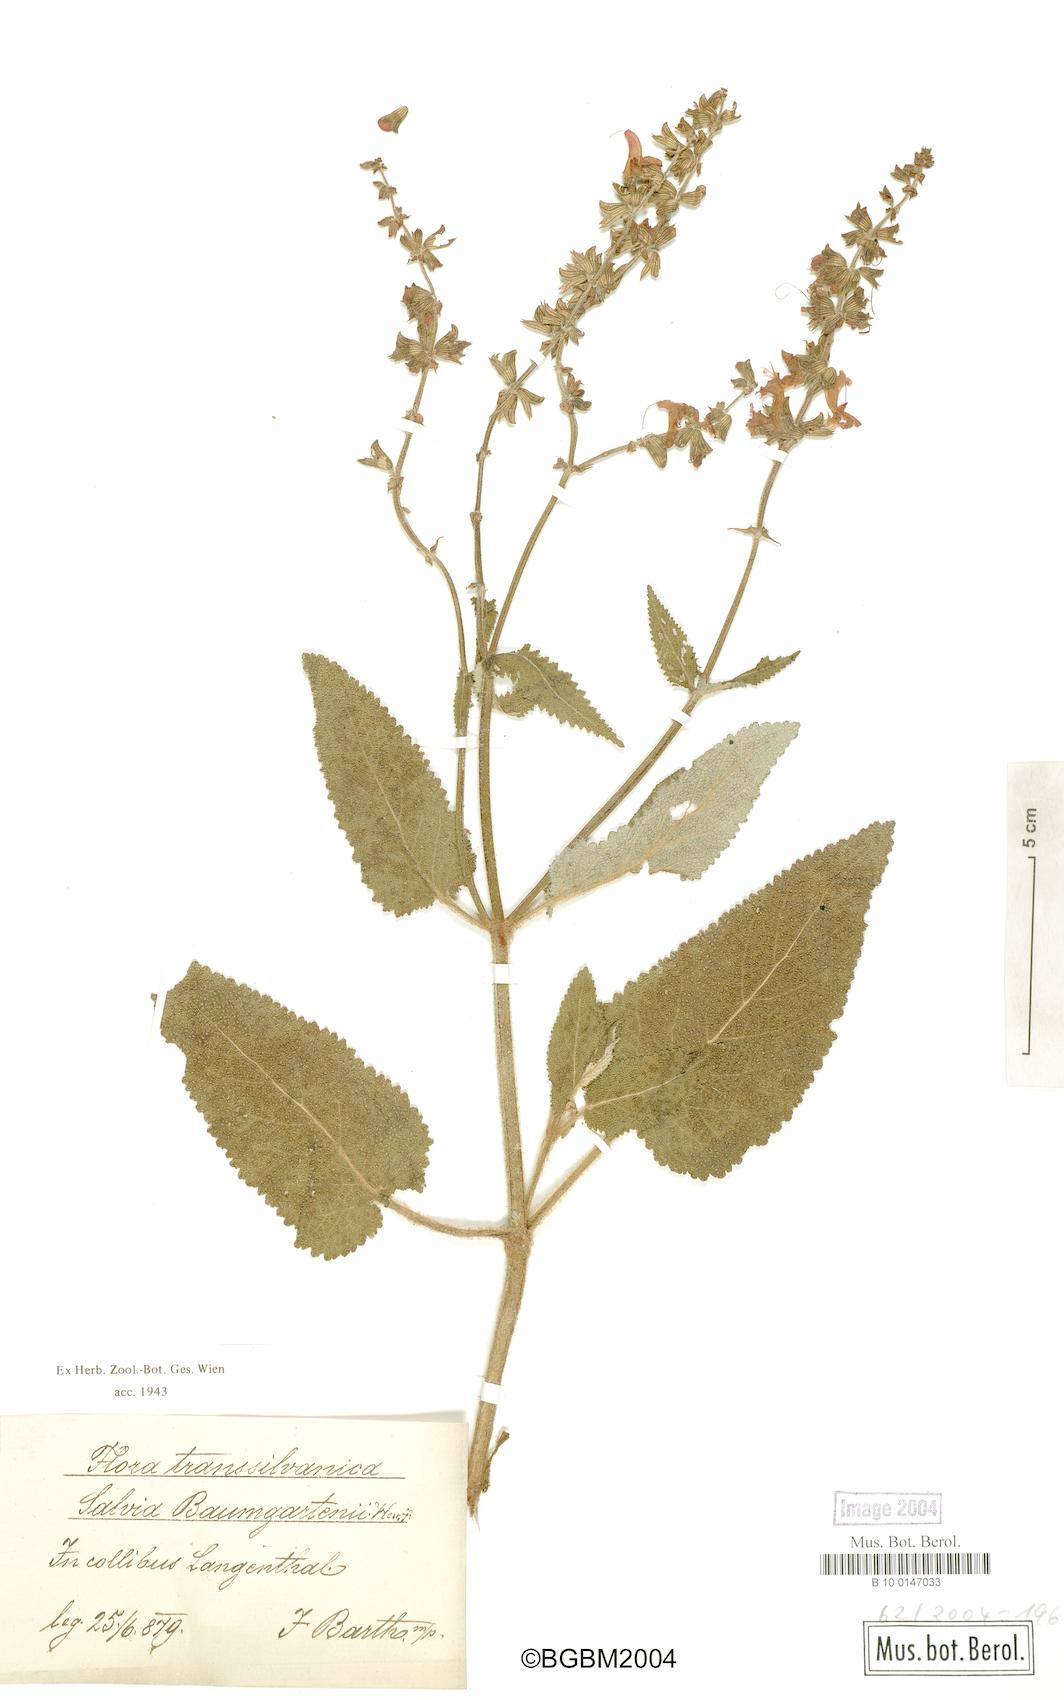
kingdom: Plantae
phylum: Tracheophyta
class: Magnoliopsida
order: Lamiales
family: Lamiaceae
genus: Salvia
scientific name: Salvia transsylvanica
